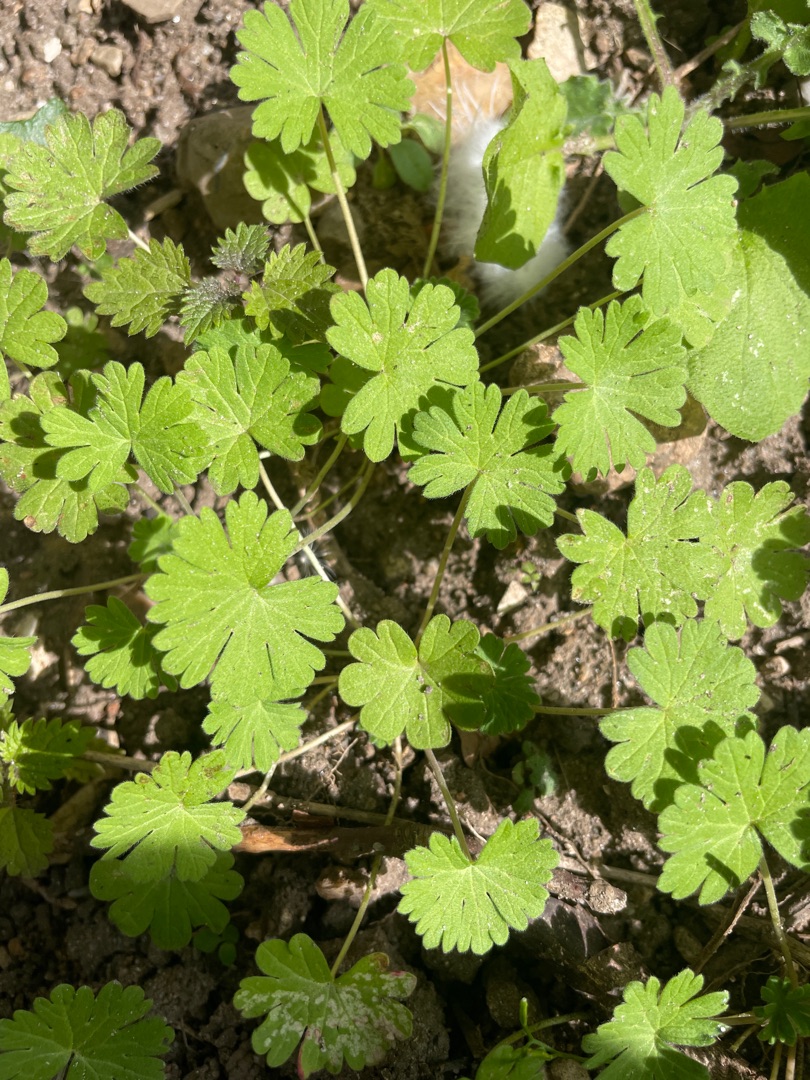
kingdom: Plantae
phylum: Tracheophyta
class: Magnoliopsida
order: Geraniales
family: Geraniaceae
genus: Geranium
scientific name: Geranium pusillum
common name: Liden storkenæb
